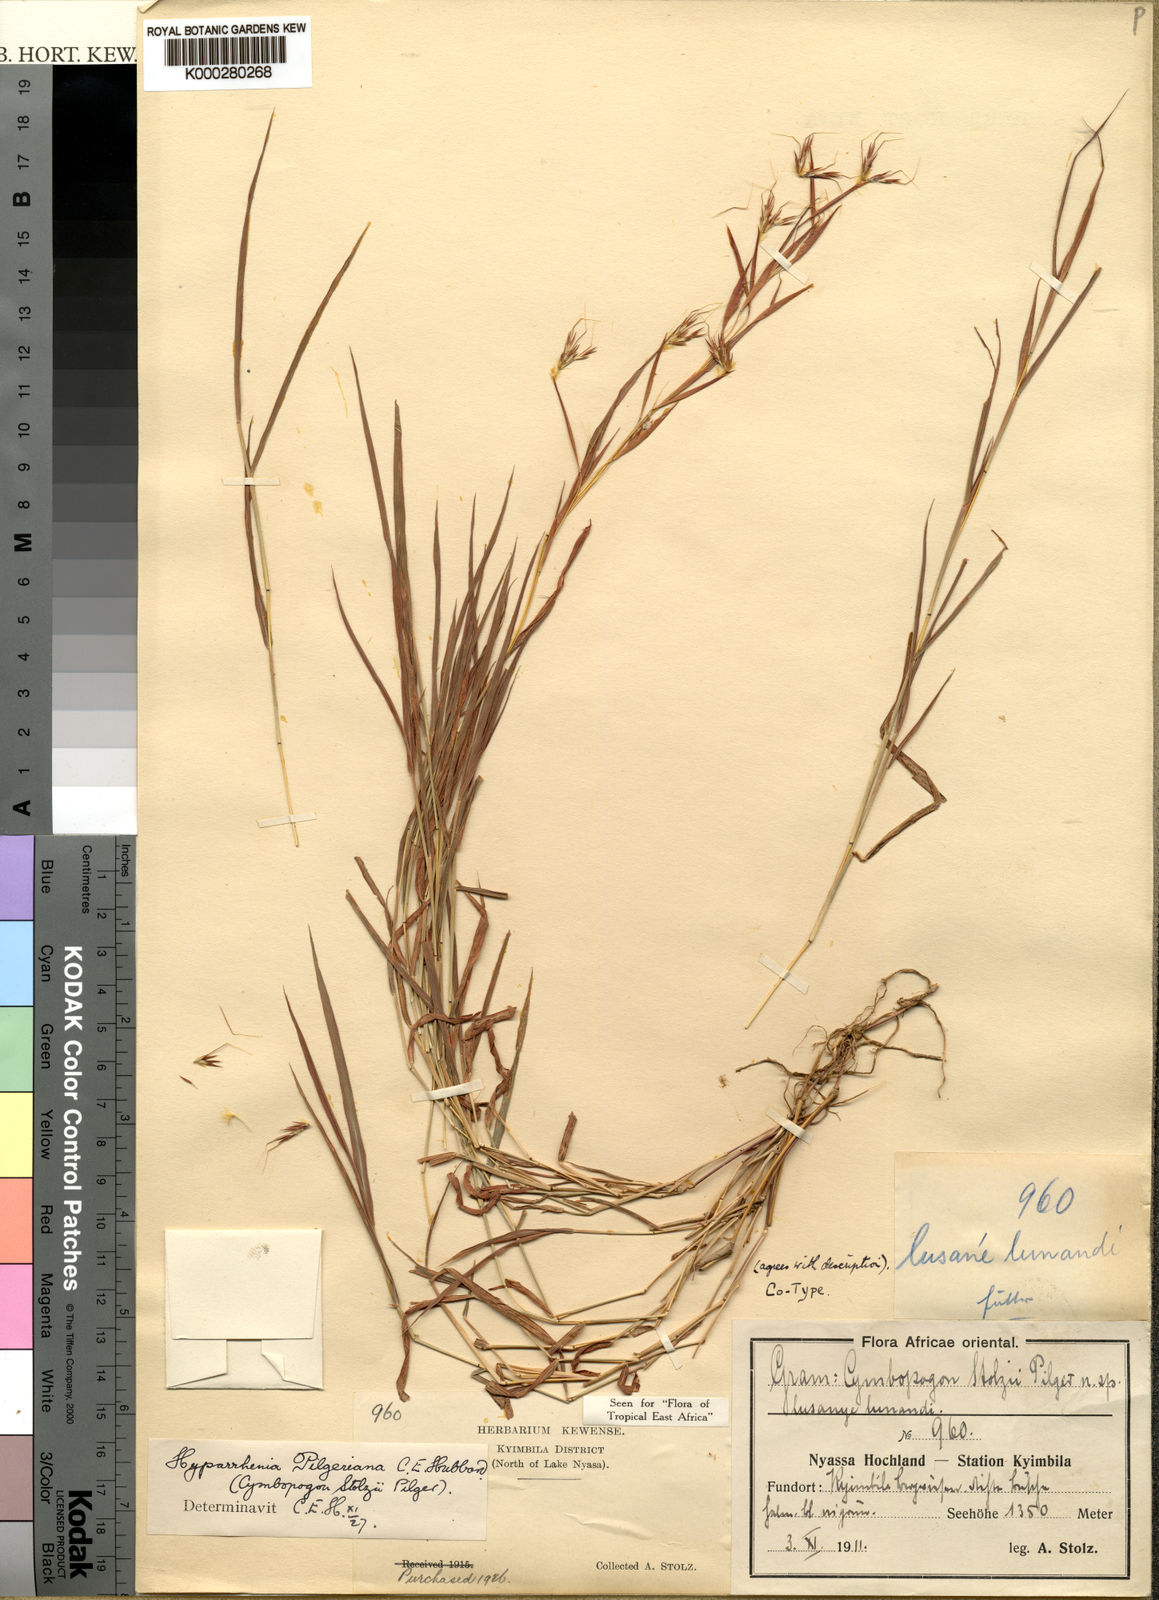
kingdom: Plantae
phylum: Tracheophyta
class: Liliopsida
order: Poales
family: Poaceae
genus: Hyparrhenia
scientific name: Hyparrhenia pilgeriana
